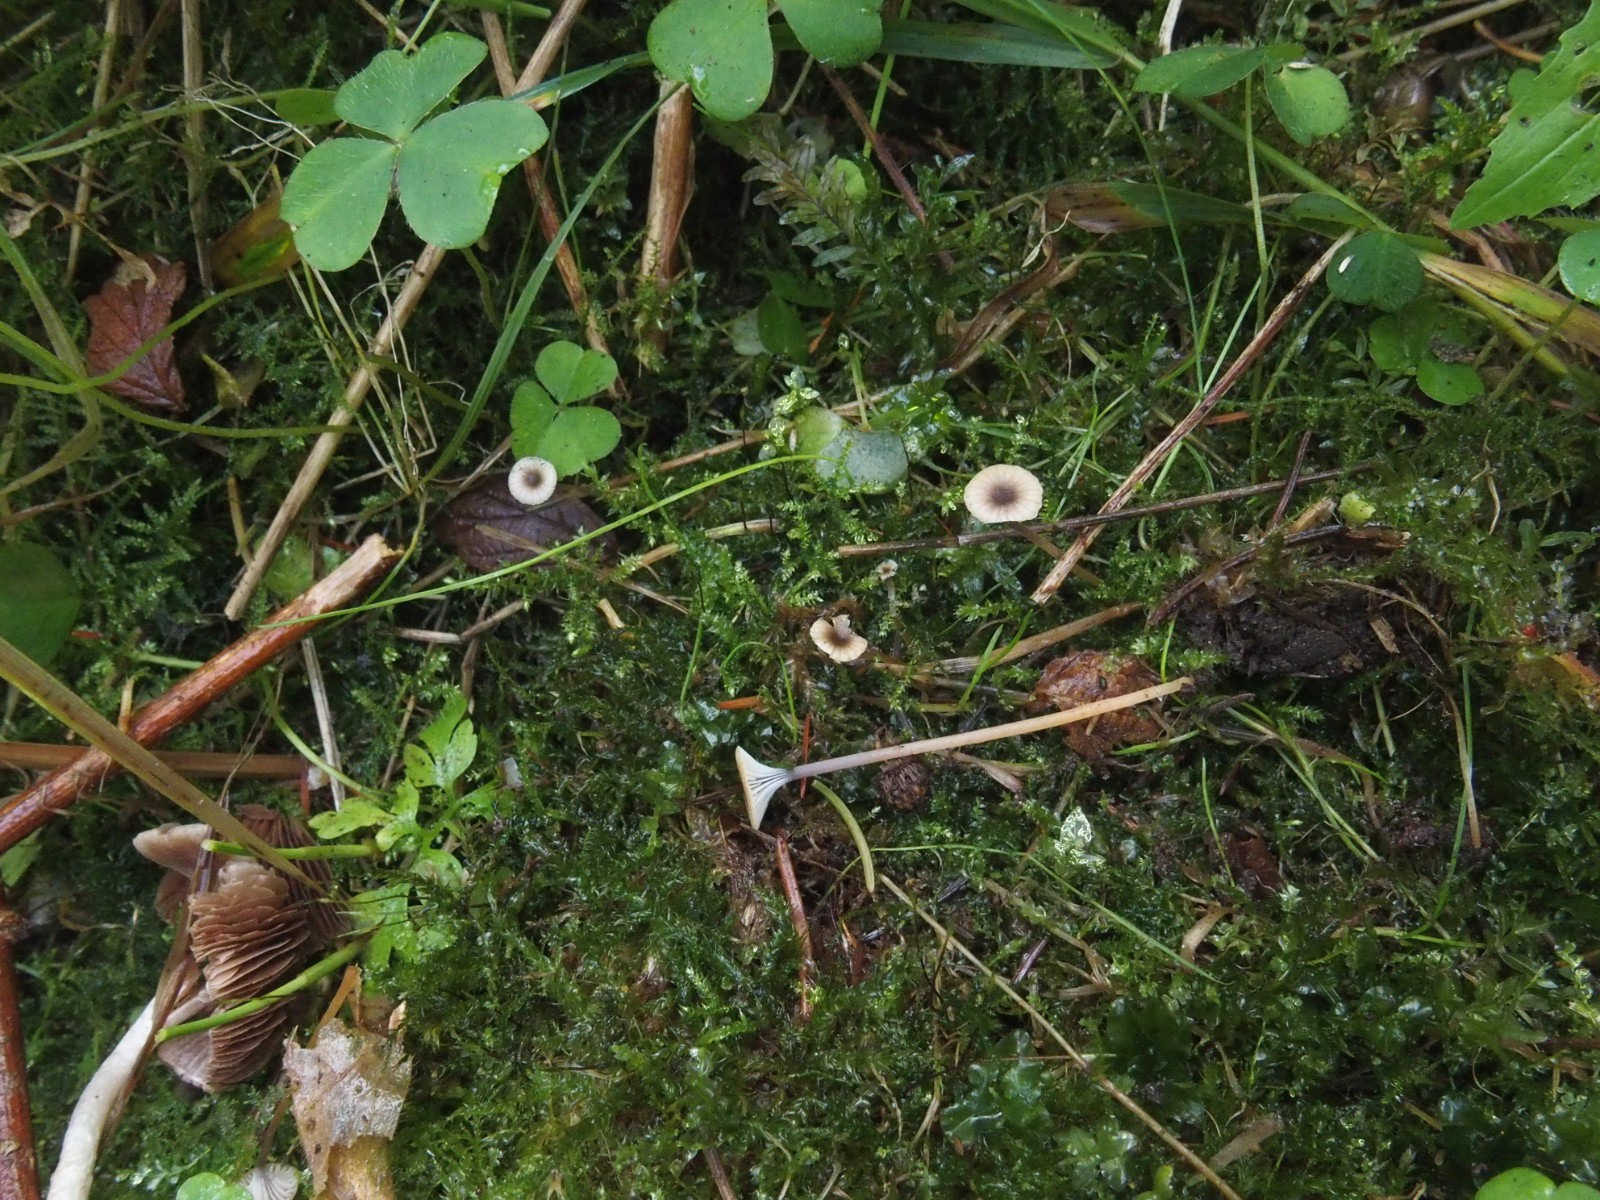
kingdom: Fungi
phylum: Basidiomycota
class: Agaricomycetes
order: Hymenochaetales
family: Rickenellaceae
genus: Rickenella
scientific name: Rickenella swartzii
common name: finstokket mosnavlehat
